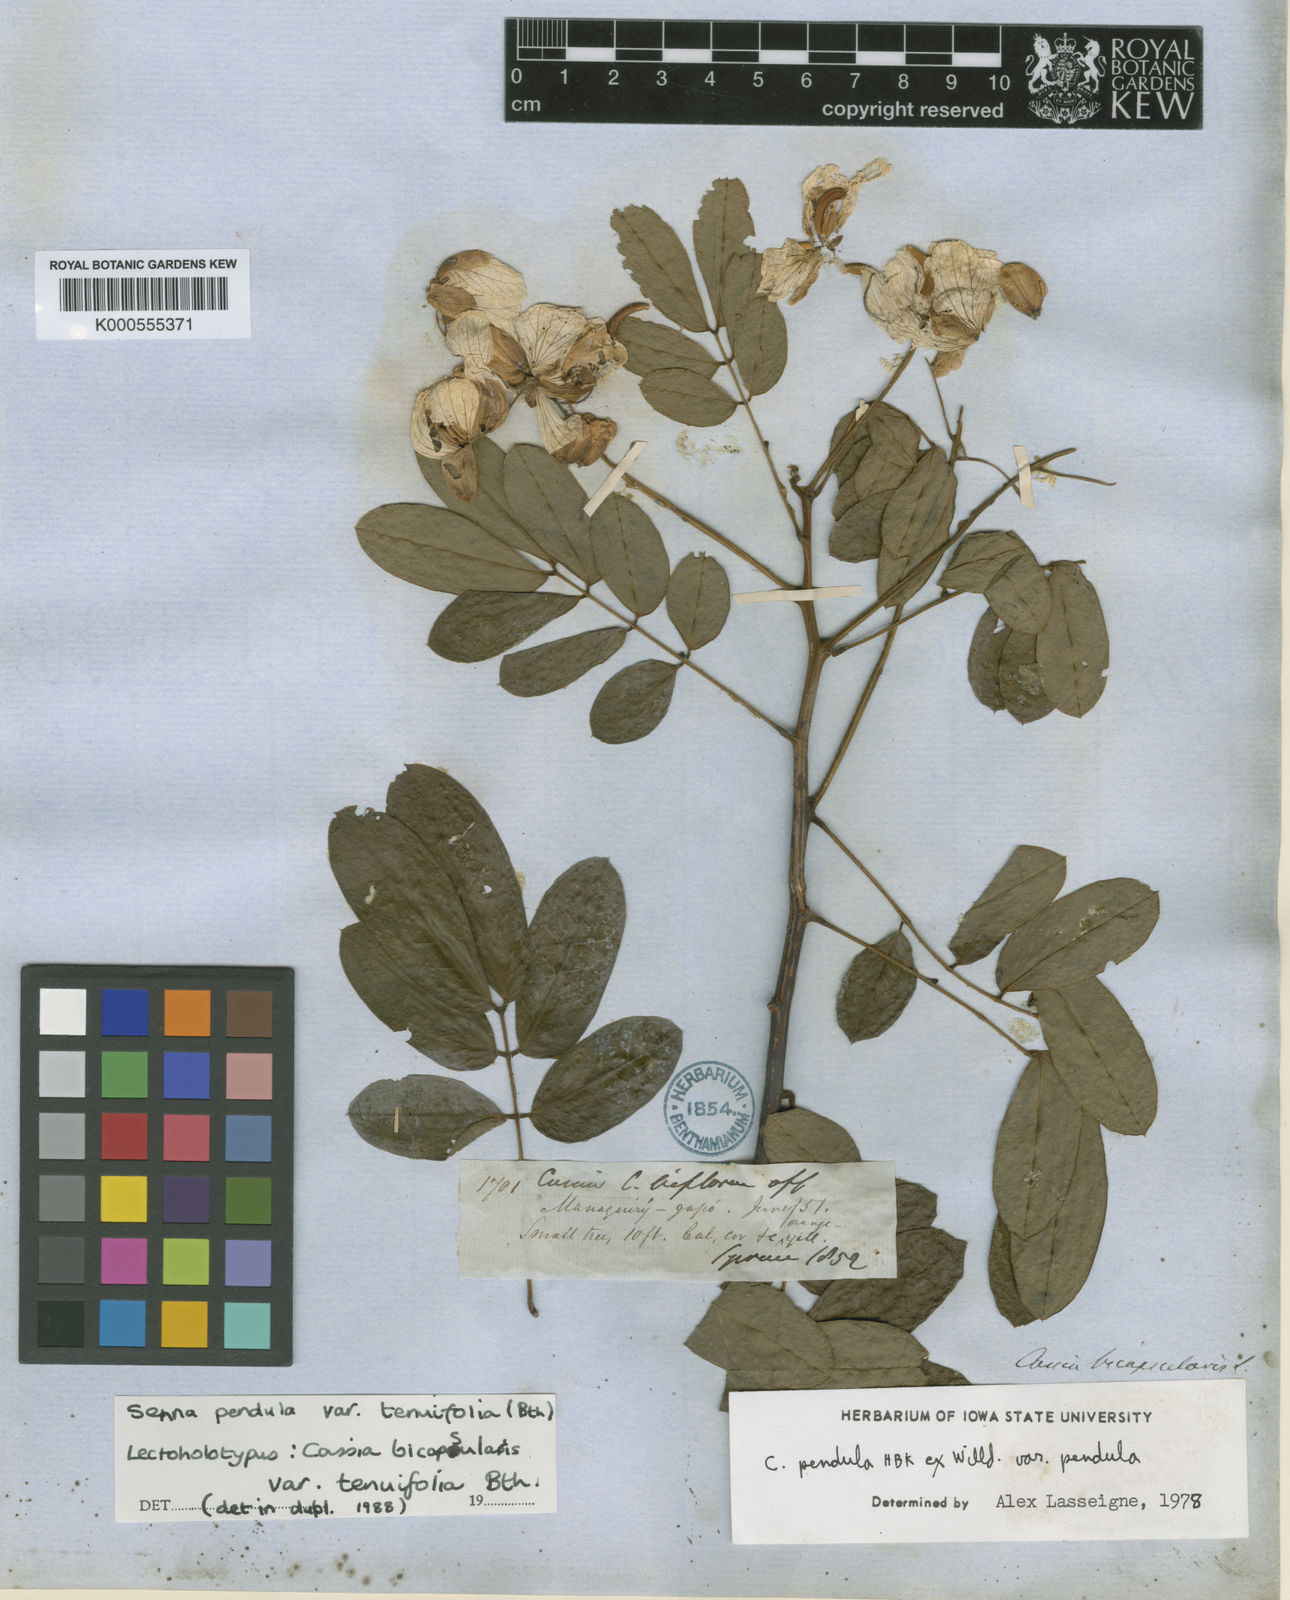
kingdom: Plantae
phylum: Tracheophyta
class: Magnoliopsida
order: Fabales
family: Fabaceae
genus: Senna
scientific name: Senna pendula
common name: Easter cassia
